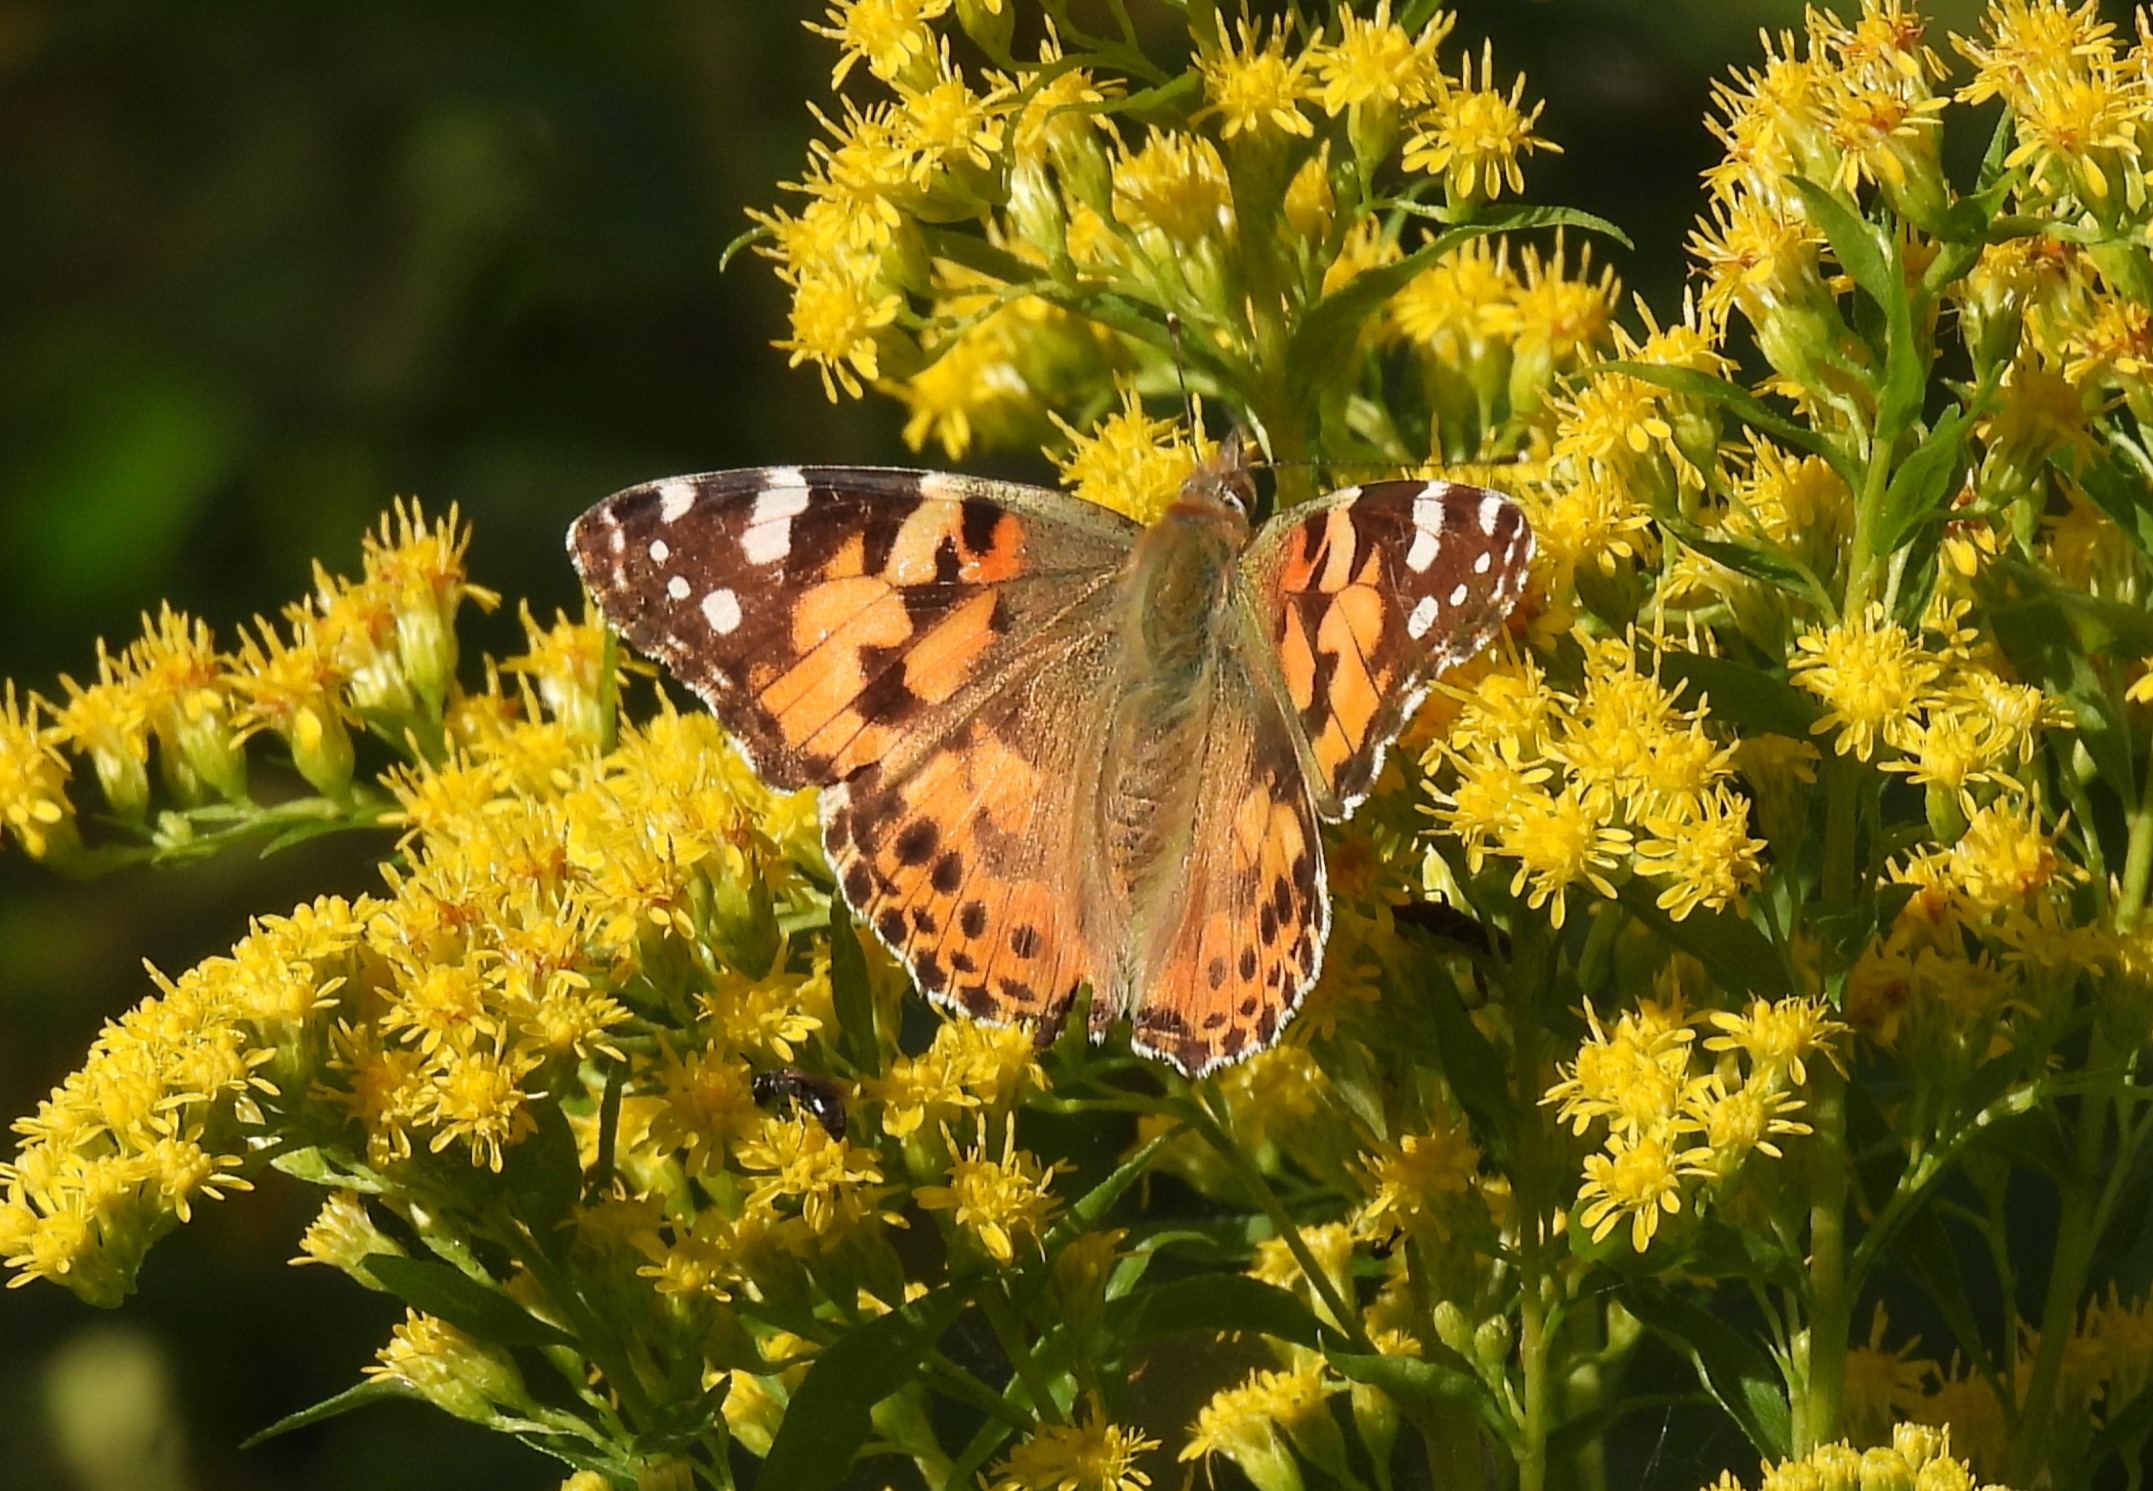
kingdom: Animalia
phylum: Arthropoda
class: Insecta
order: Lepidoptera
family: Nymphalidae
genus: Vanessa
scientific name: Vanessa cardui
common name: Tidselsommerfugl
